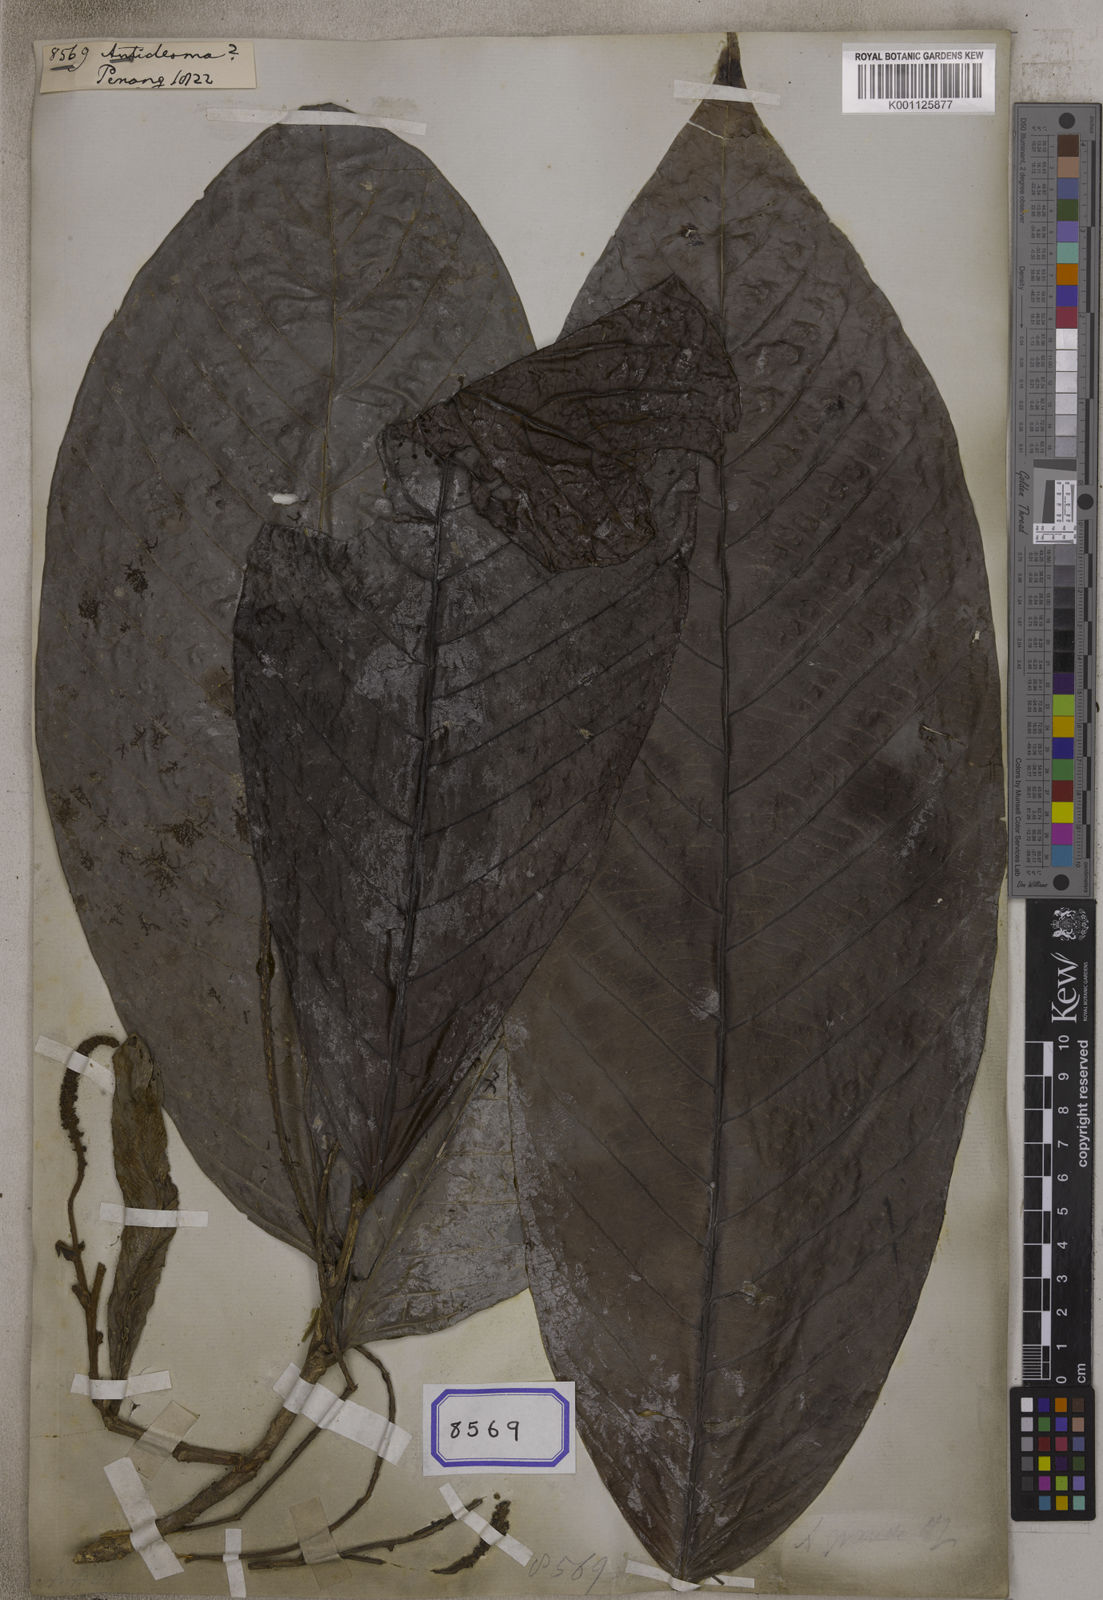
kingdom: Plantae
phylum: Tracheophyta
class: Magnoliopsida
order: Malpighiales
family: Phyllanthaceae
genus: Antidesma
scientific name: Antidesma
